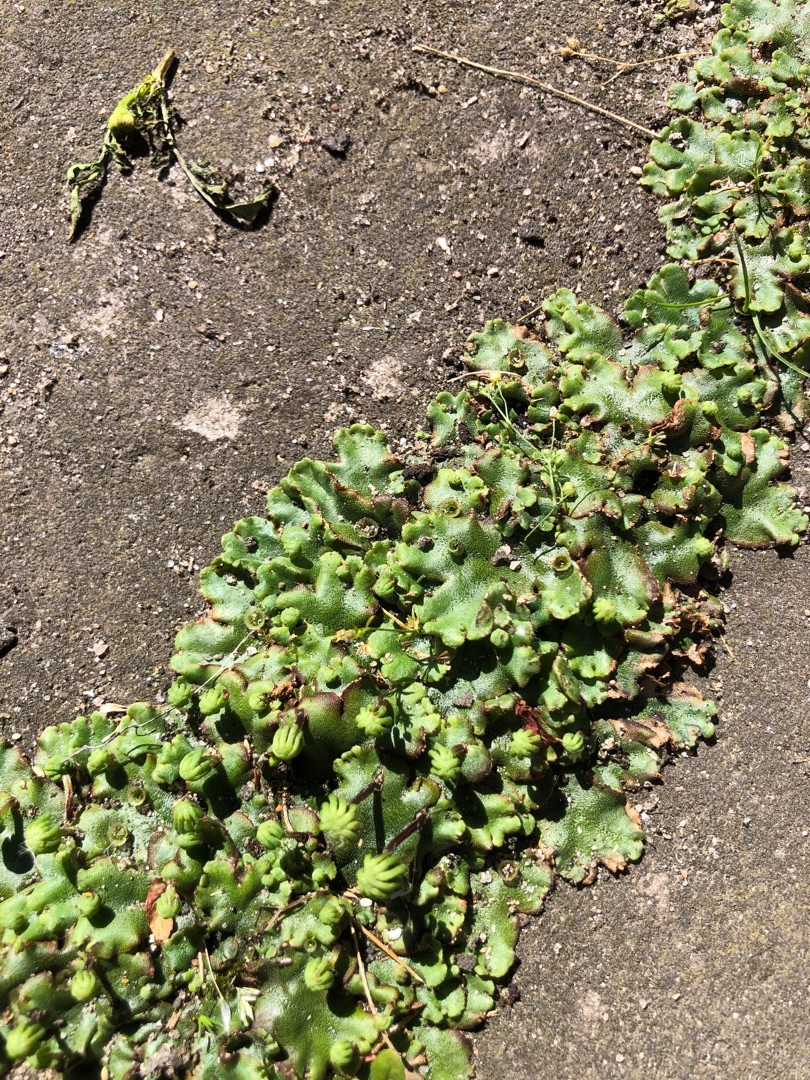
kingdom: Plantae
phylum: Marchantiophyta
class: Marchantiopsida
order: Marchantiales
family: Marchantiaceae
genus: Marchantia
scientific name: Marchantia polymorpha
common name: Almindelig lungemos (underart)
